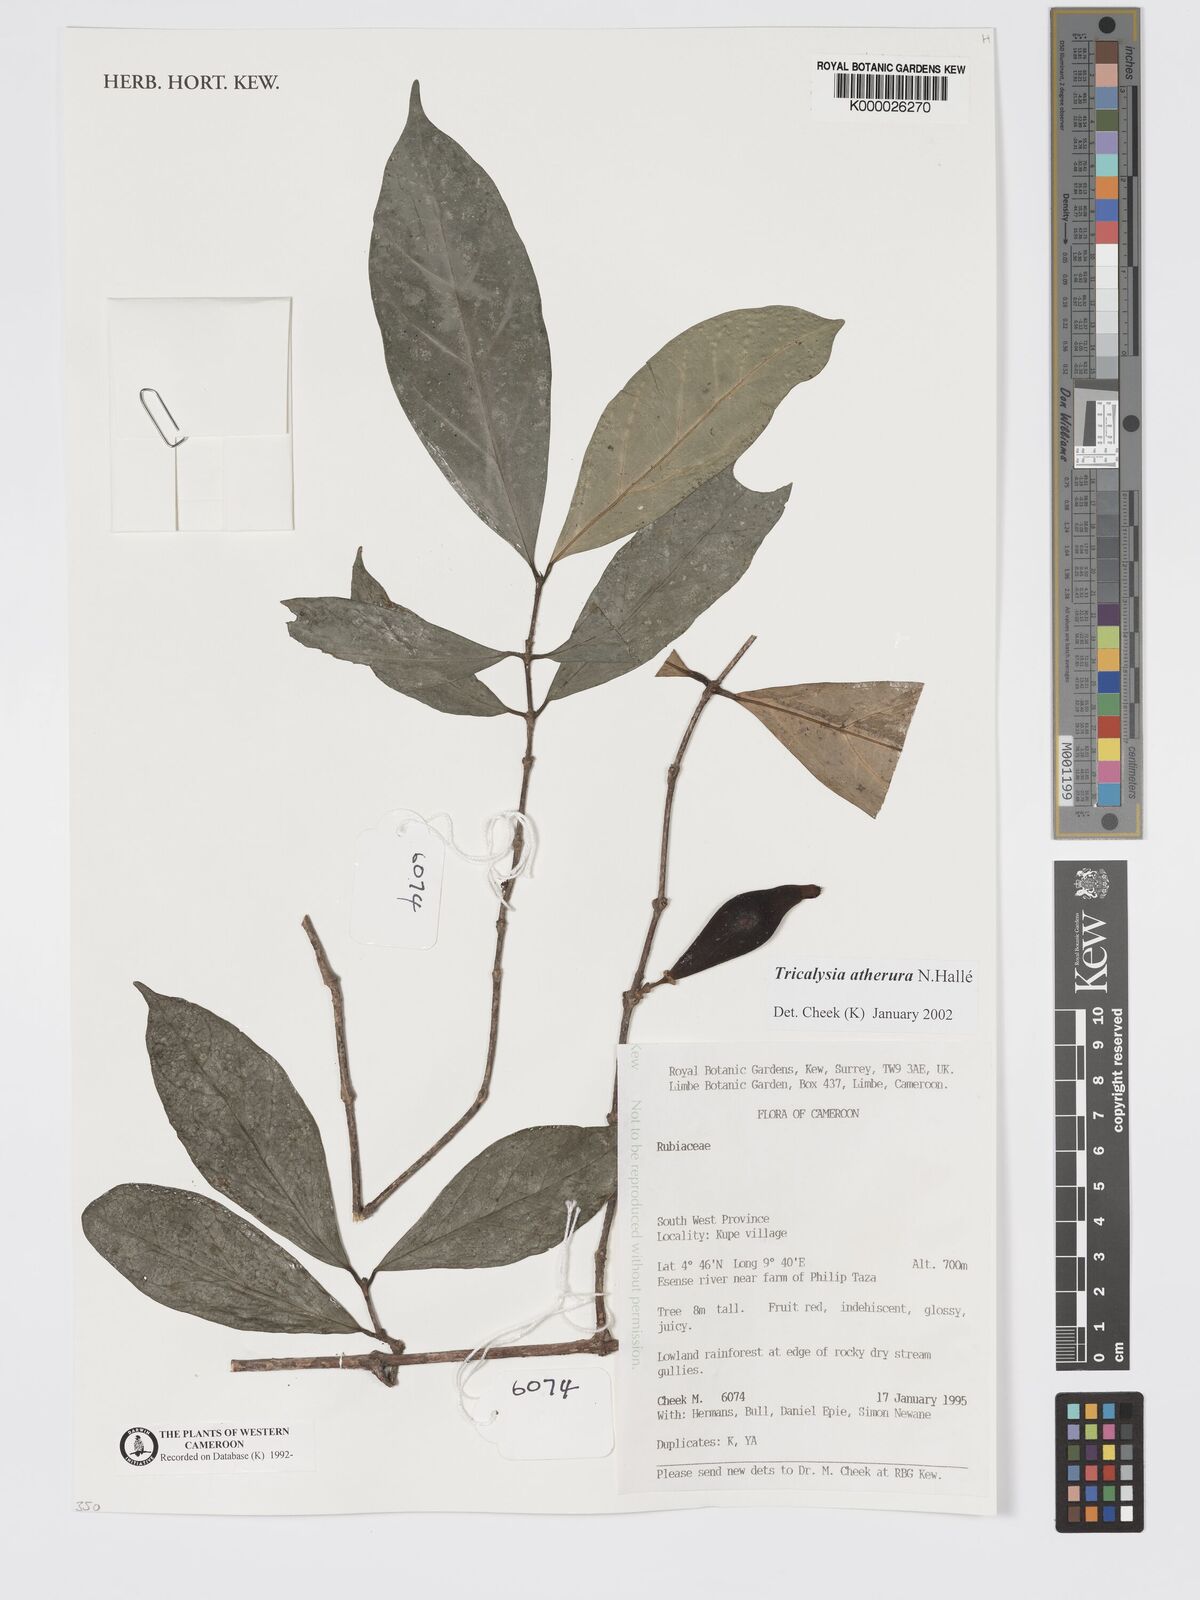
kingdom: Plantae
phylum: Tracheophyta
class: Magnoliopsida
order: Gentianales
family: Rubiaceae
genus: Tricalysia
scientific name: Tricalysia
